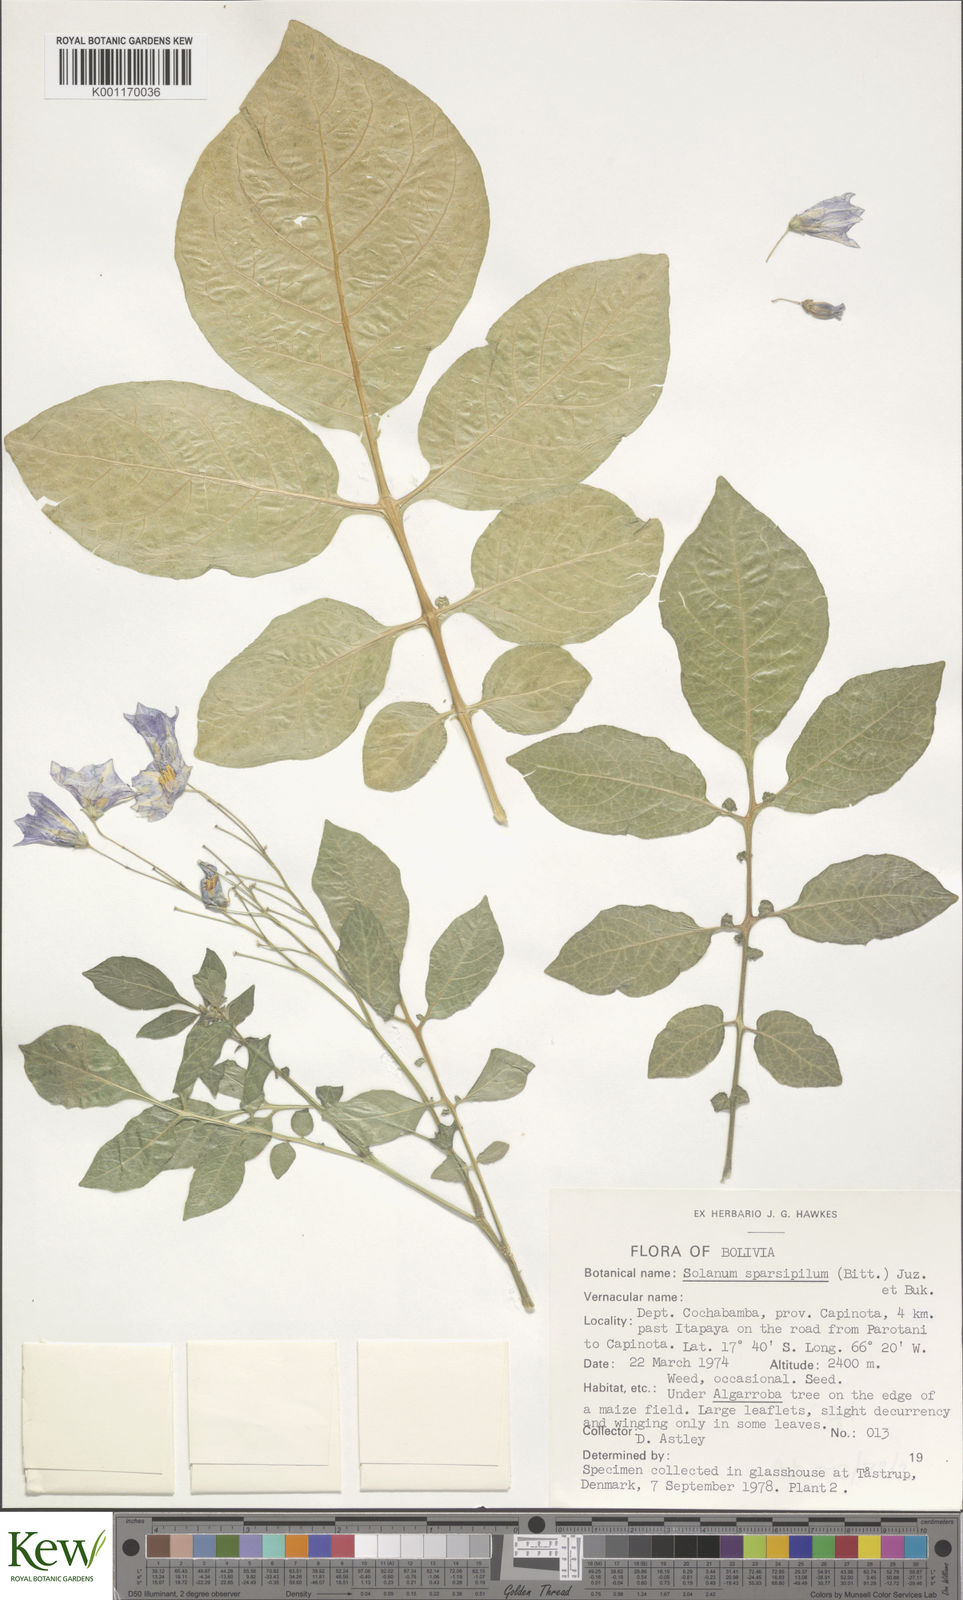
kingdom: Plantae
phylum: Tracheophyta
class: Magnoliopsida
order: Solanales
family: Solanaceae
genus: Solanum
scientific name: Solanum brevicaule
